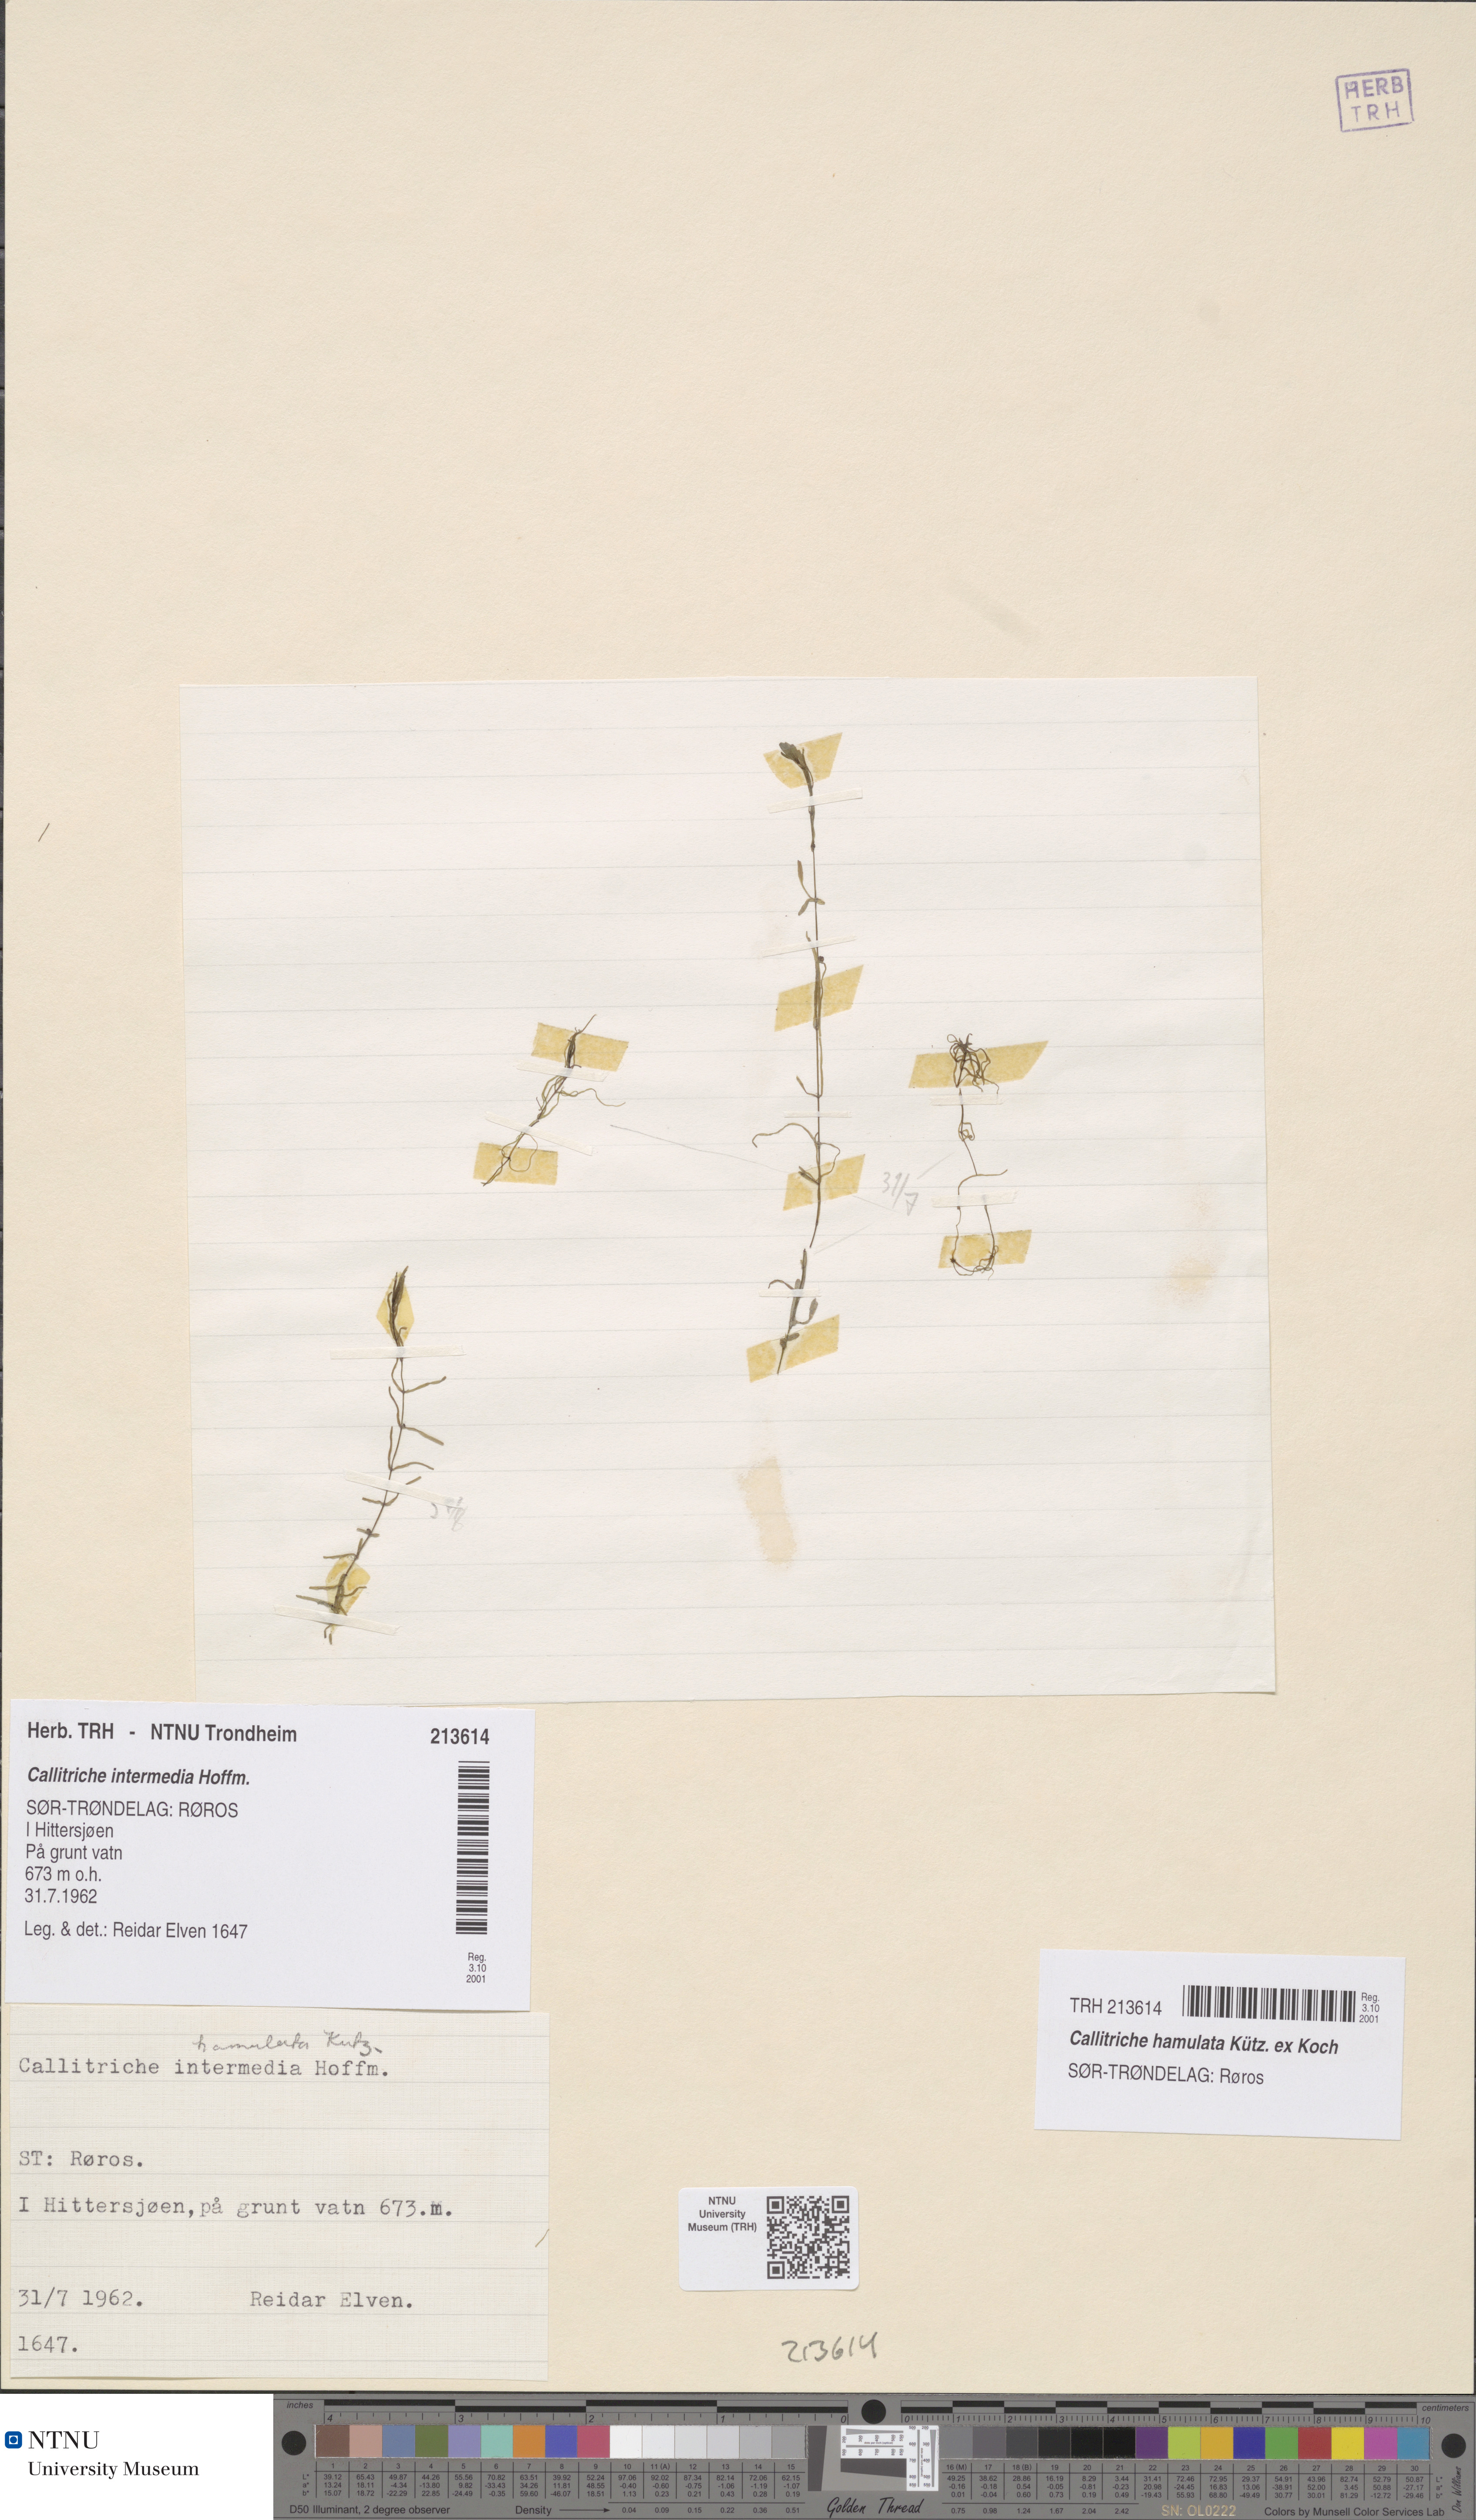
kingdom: Plantae
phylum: Tracheophyta
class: Magnoliopsida
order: Lamiales
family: Plantaginaceae
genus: Callitriche
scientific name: Callitriche hamulata
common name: Intermediate water-starwort
